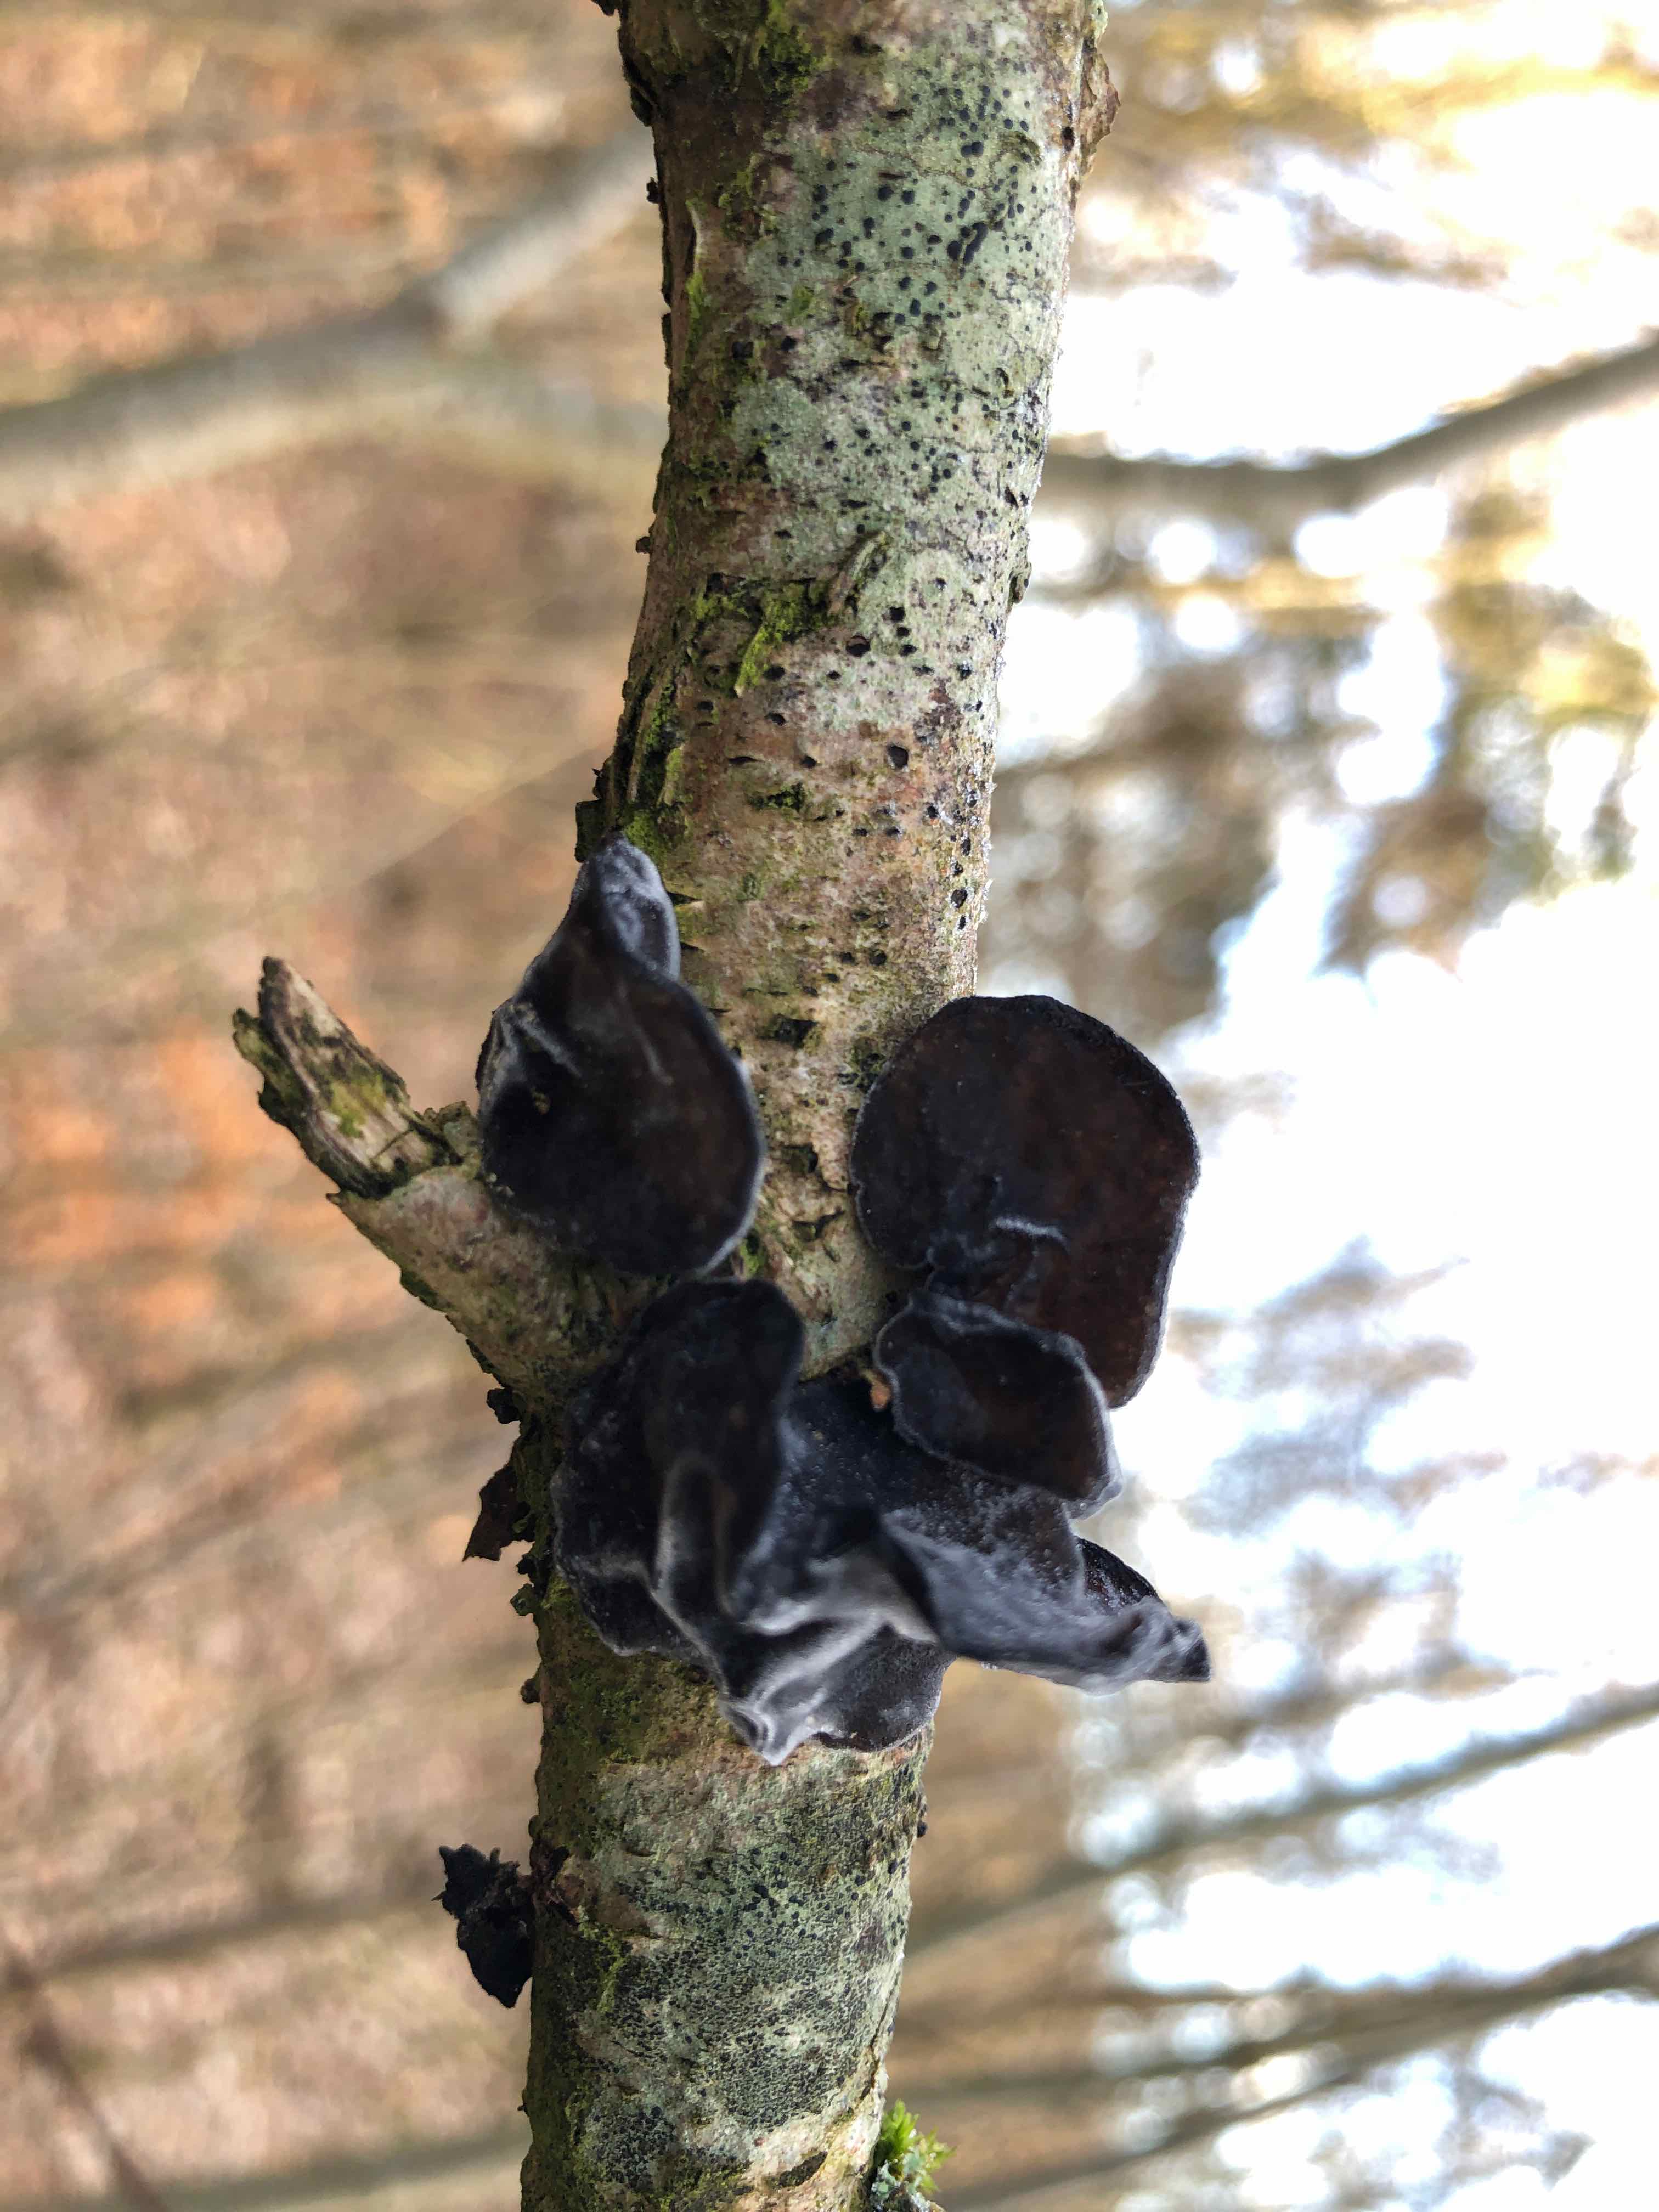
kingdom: Fungi
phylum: Basidiomycota
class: Agaricomycetes
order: Auriculariales
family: Auriculariaceae
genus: Exidia
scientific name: Exidia glandulosa
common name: ege-bævretop
